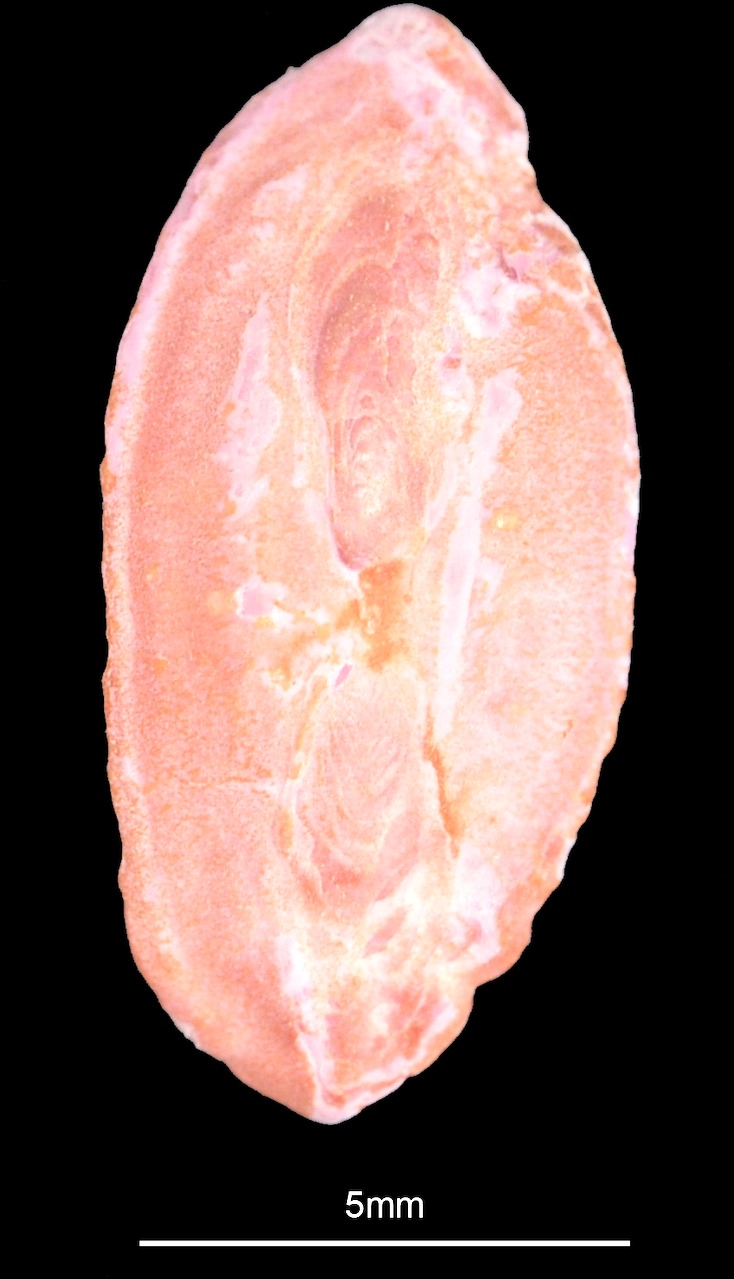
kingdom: Animalia
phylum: Chordata
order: Gadiformes
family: Lotidae
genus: Brosme
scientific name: Brosme brosme
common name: Cusk
